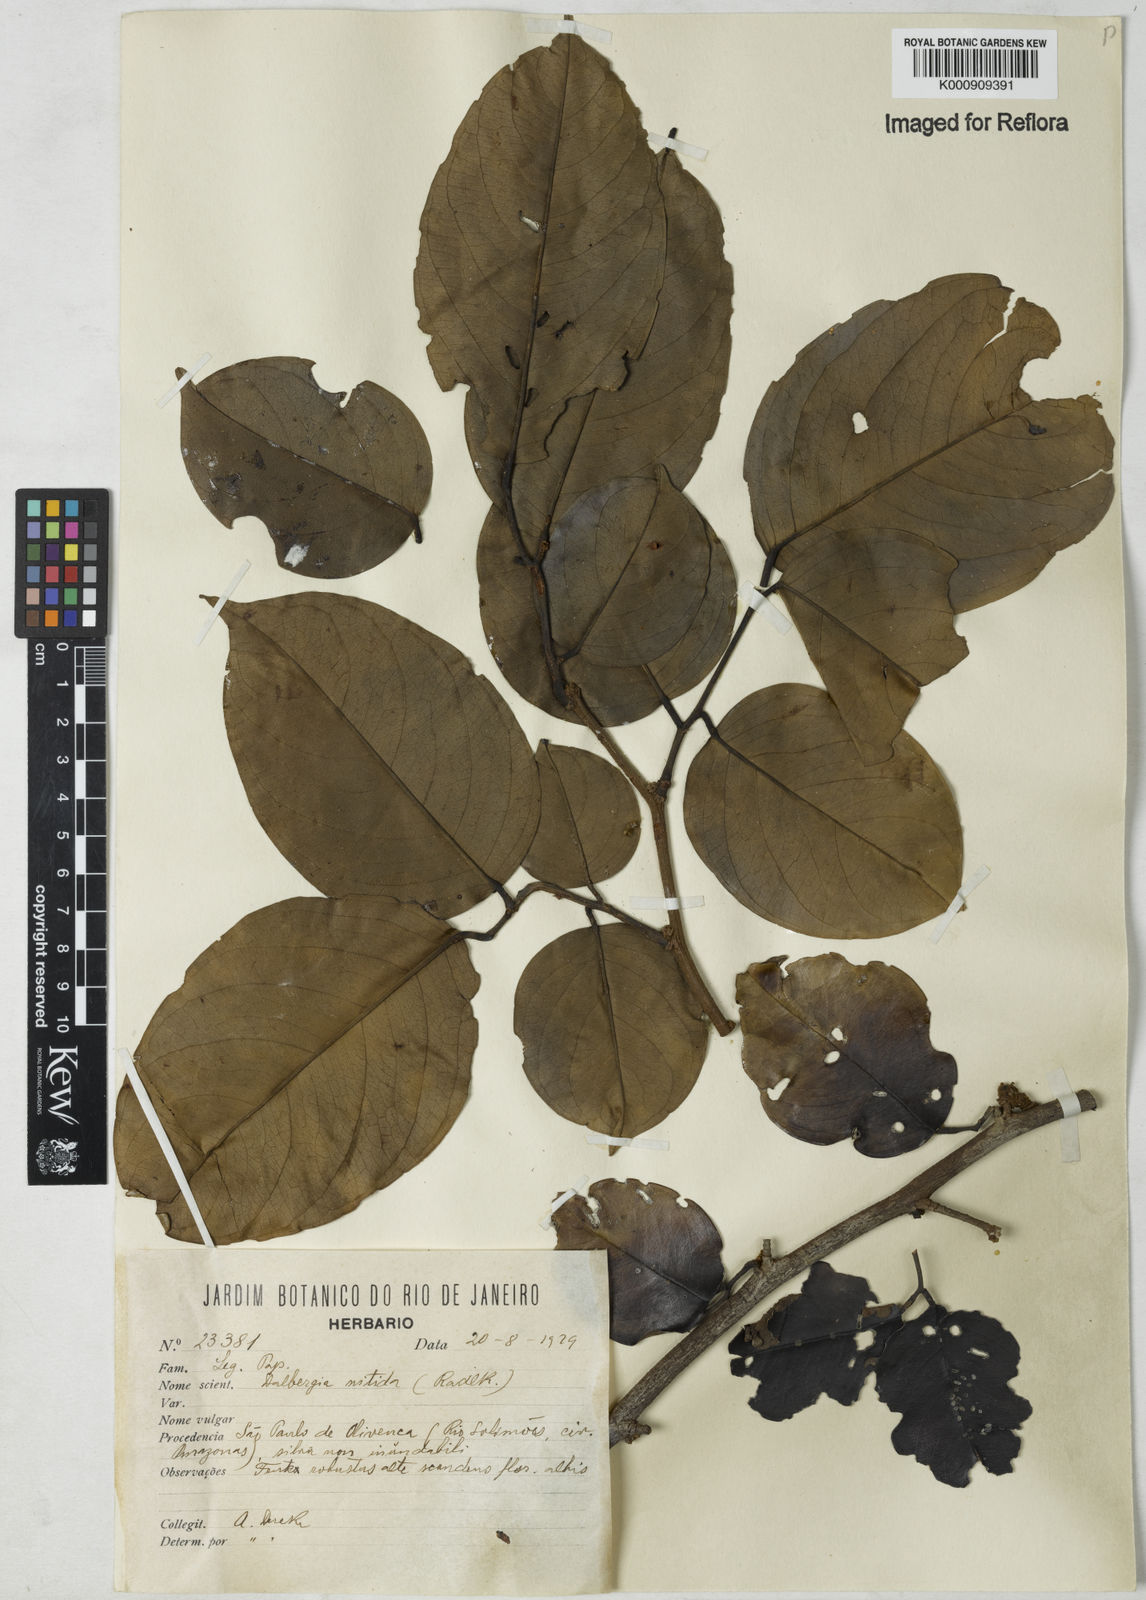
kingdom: Plantae
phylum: Tracheophyta
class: Magnoliopsida
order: Fabales
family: Fabaceae
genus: Dalbergia
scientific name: Dalbergia
